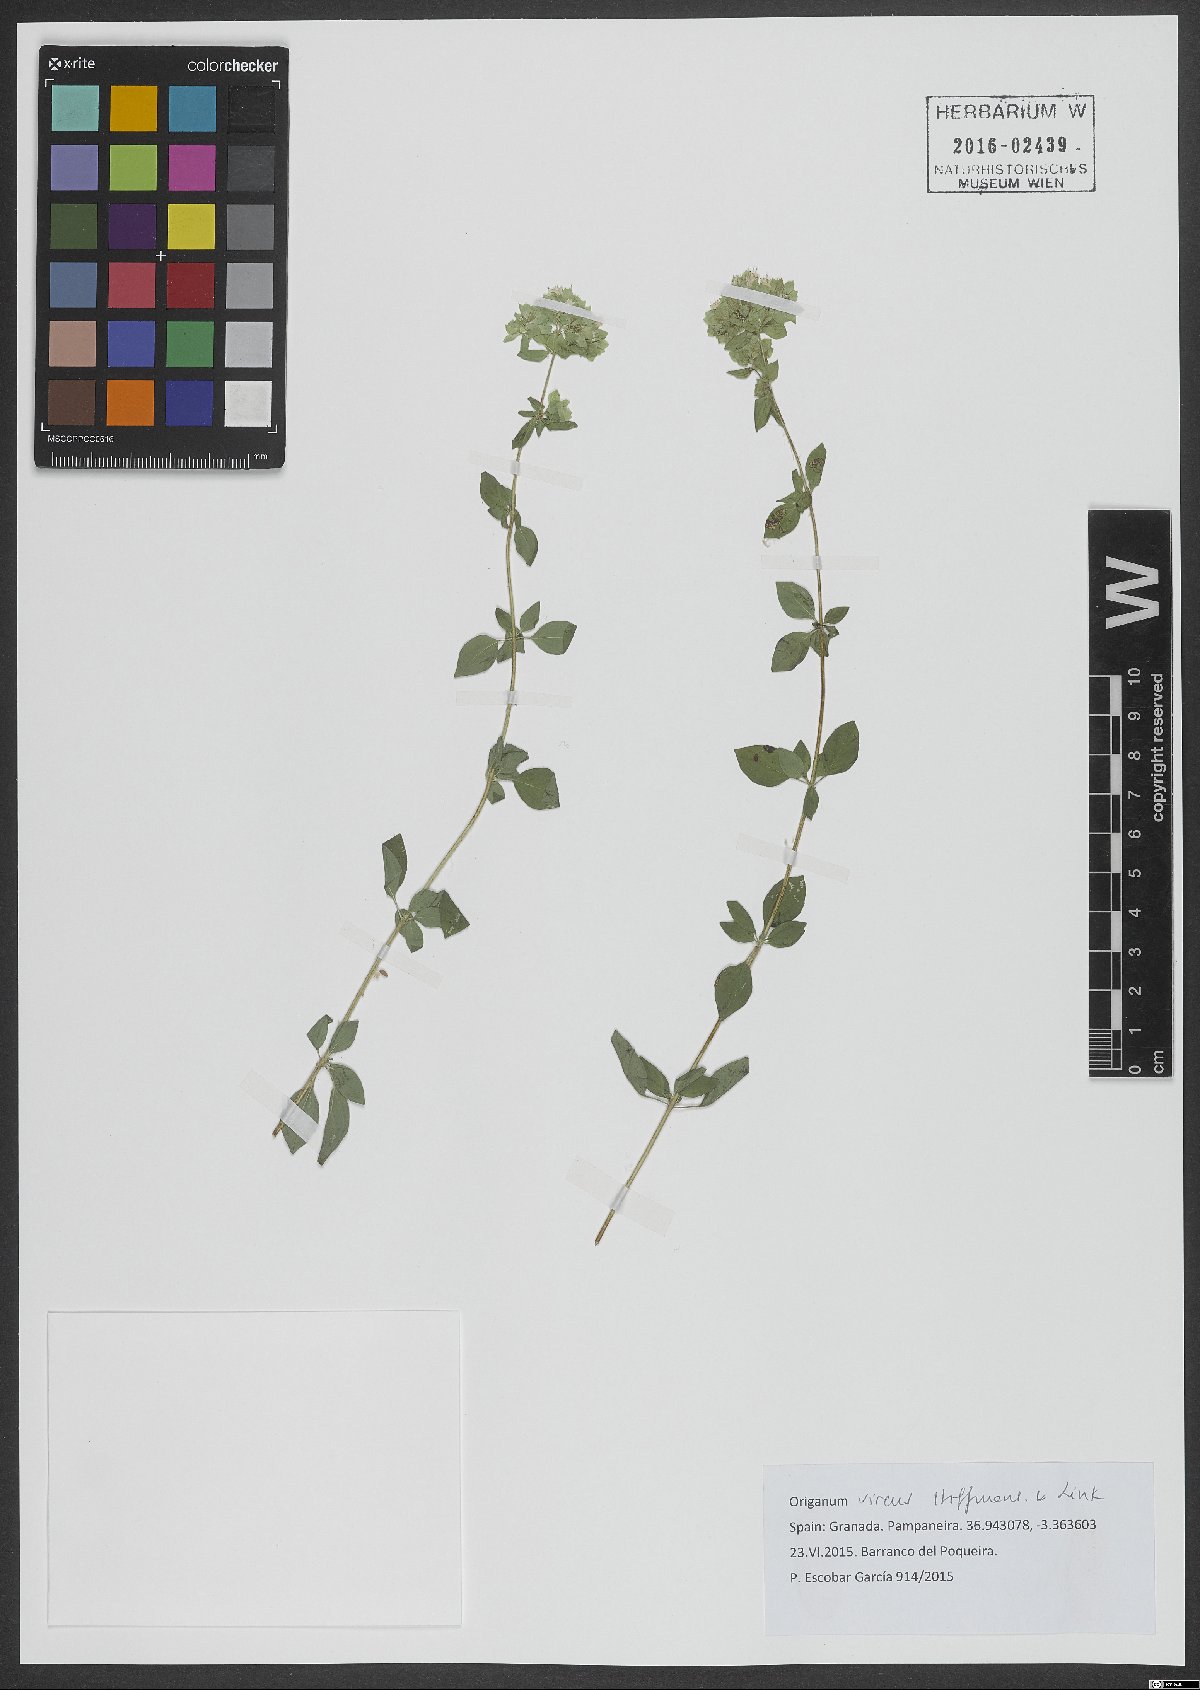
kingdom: Plantae
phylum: Tracheophyta
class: Magnoliopsida
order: Lamiales
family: Lamiaceae
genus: Origanum
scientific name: Origanum vulgare
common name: Wild marjoram
